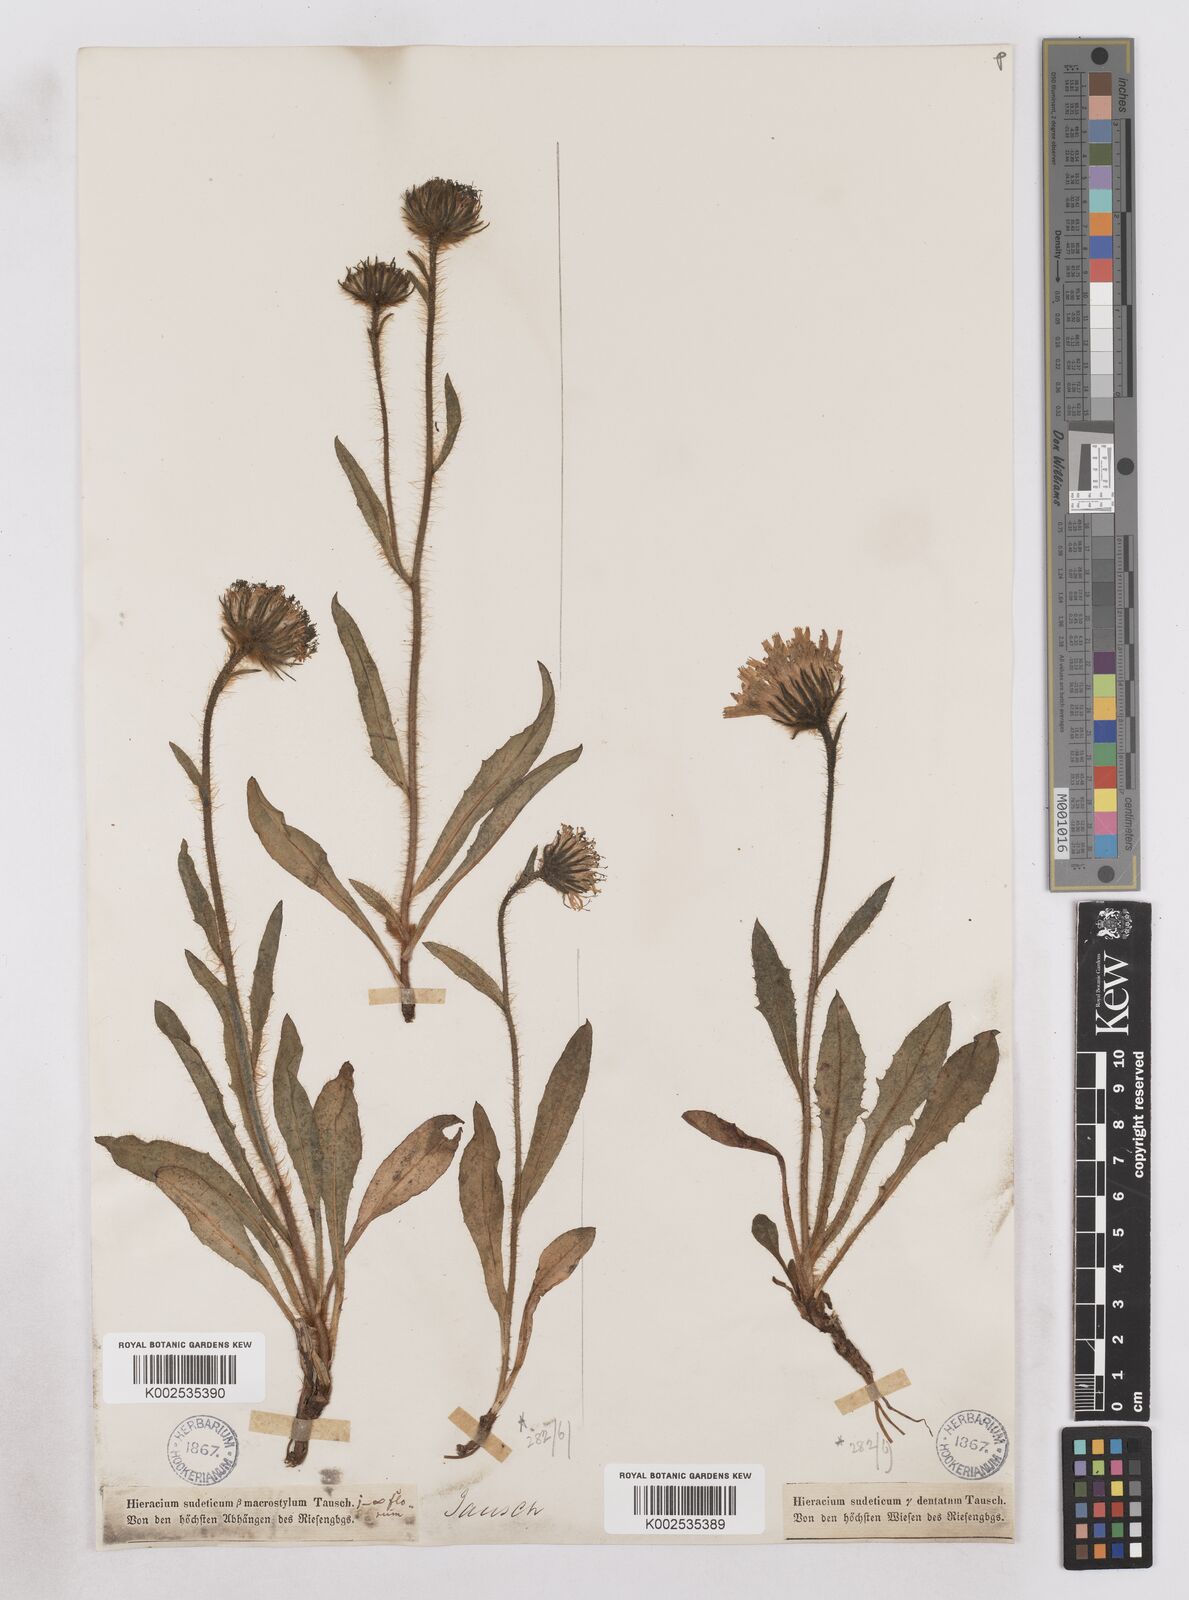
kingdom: Plantae
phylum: Tracheophyta
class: Magnoliopsida
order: Asterales
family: Asteraceae
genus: Hieracium
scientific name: Hieracium fritzei
